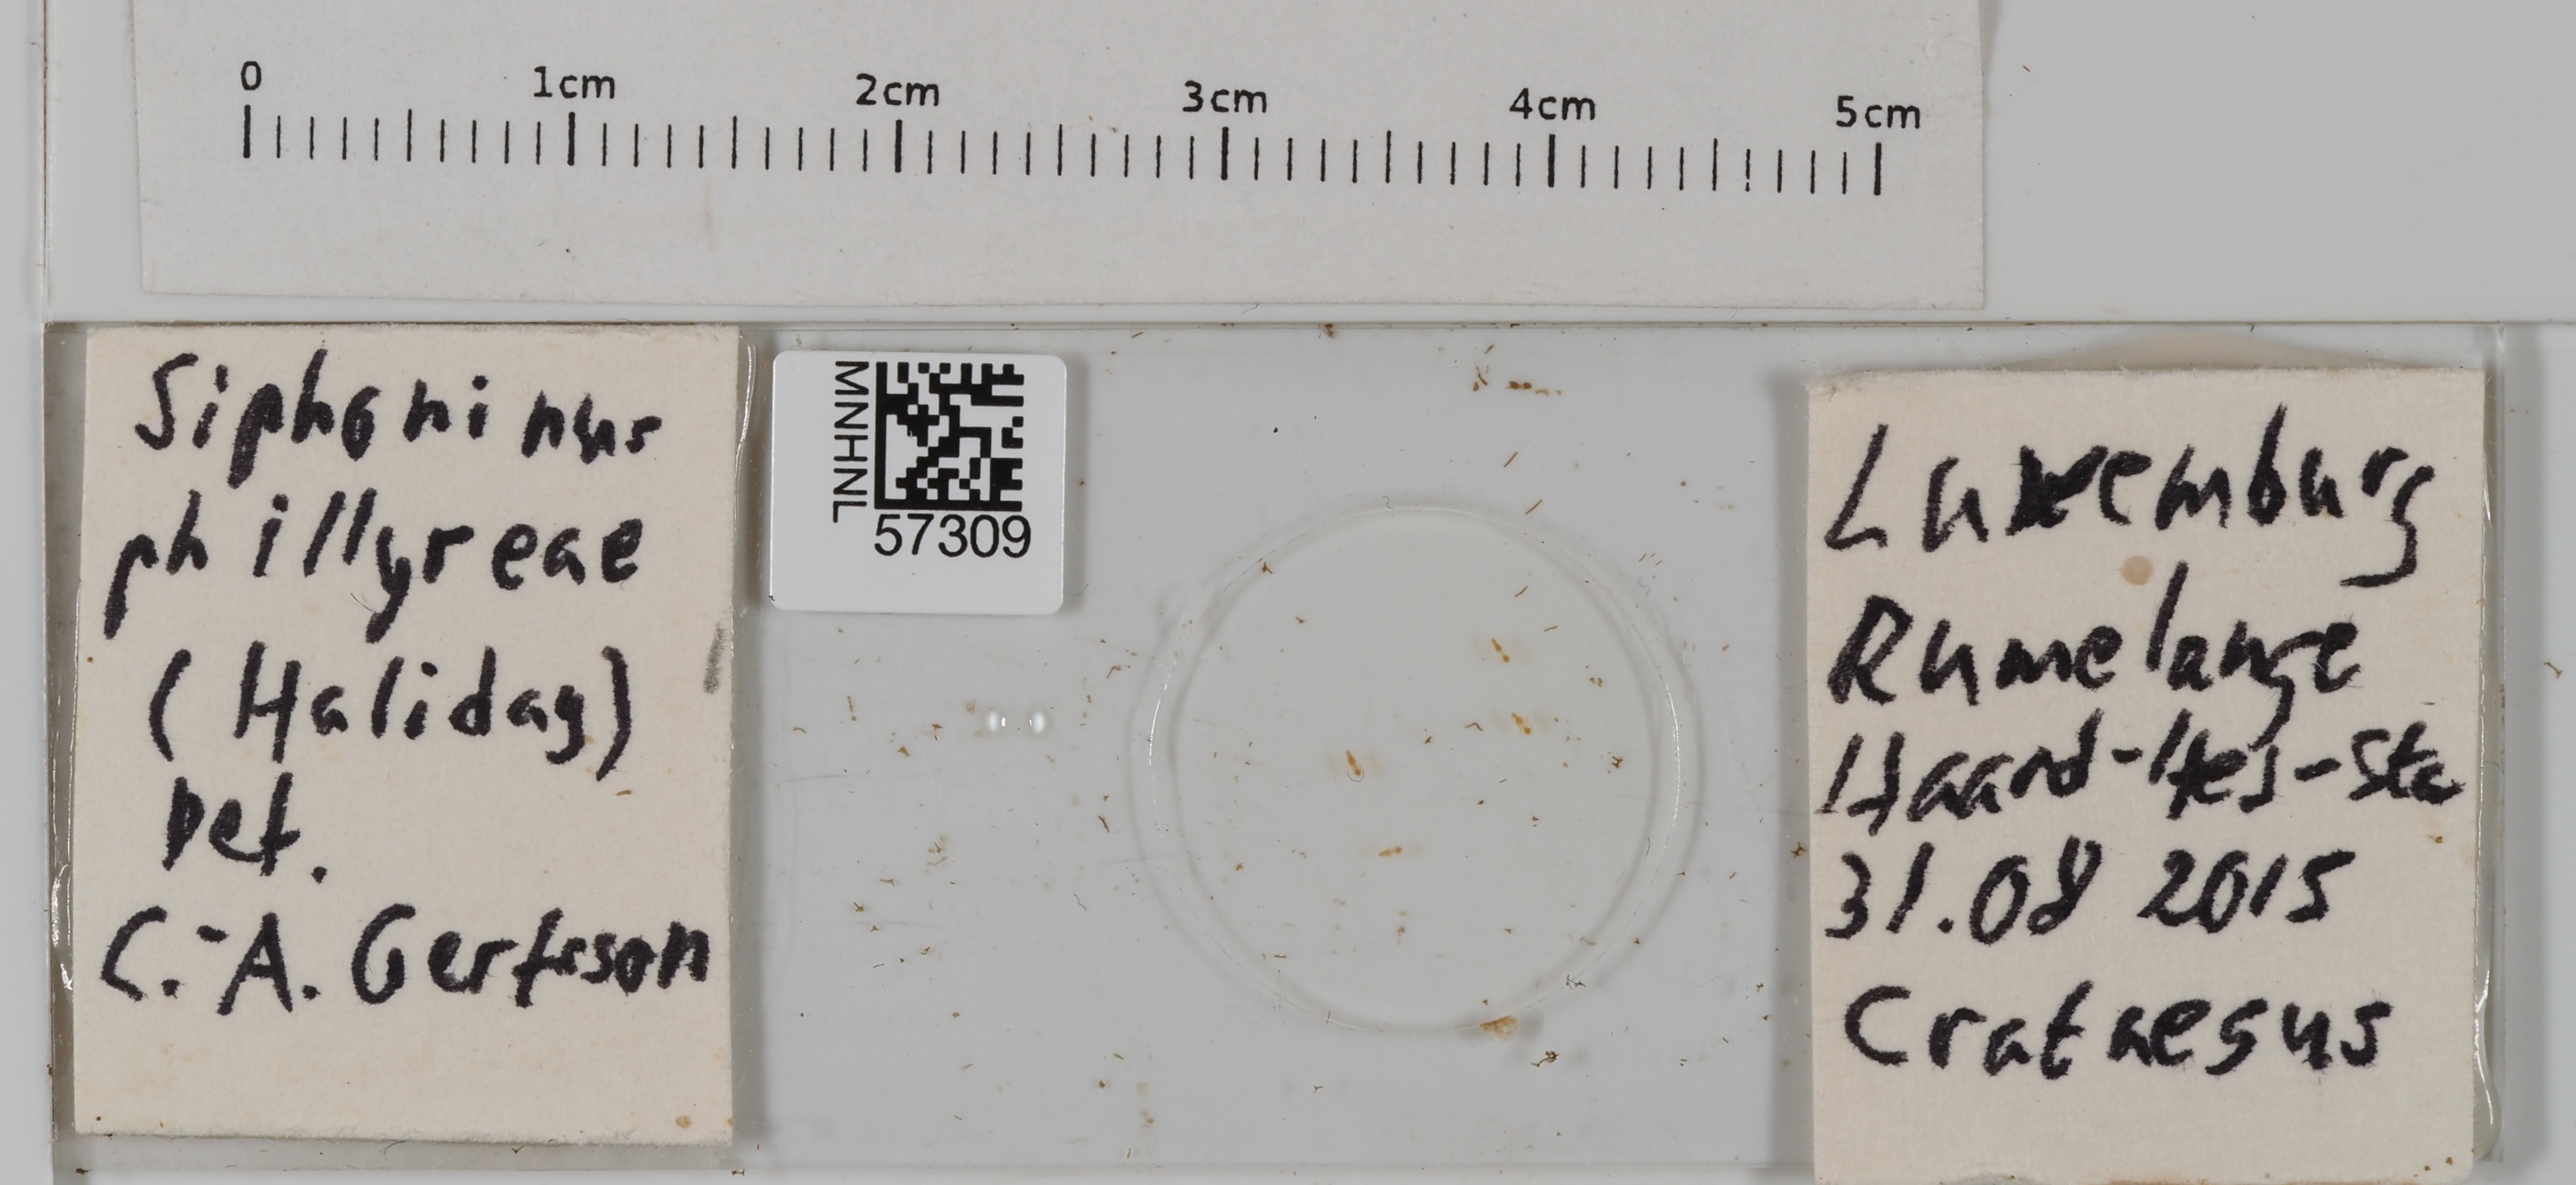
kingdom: Animalia
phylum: Arthropoda
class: Insecta
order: Hemiptera
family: Aleyrodidae
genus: Siphoninus
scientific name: Siphoninus phillyreae
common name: Ash whitefly
